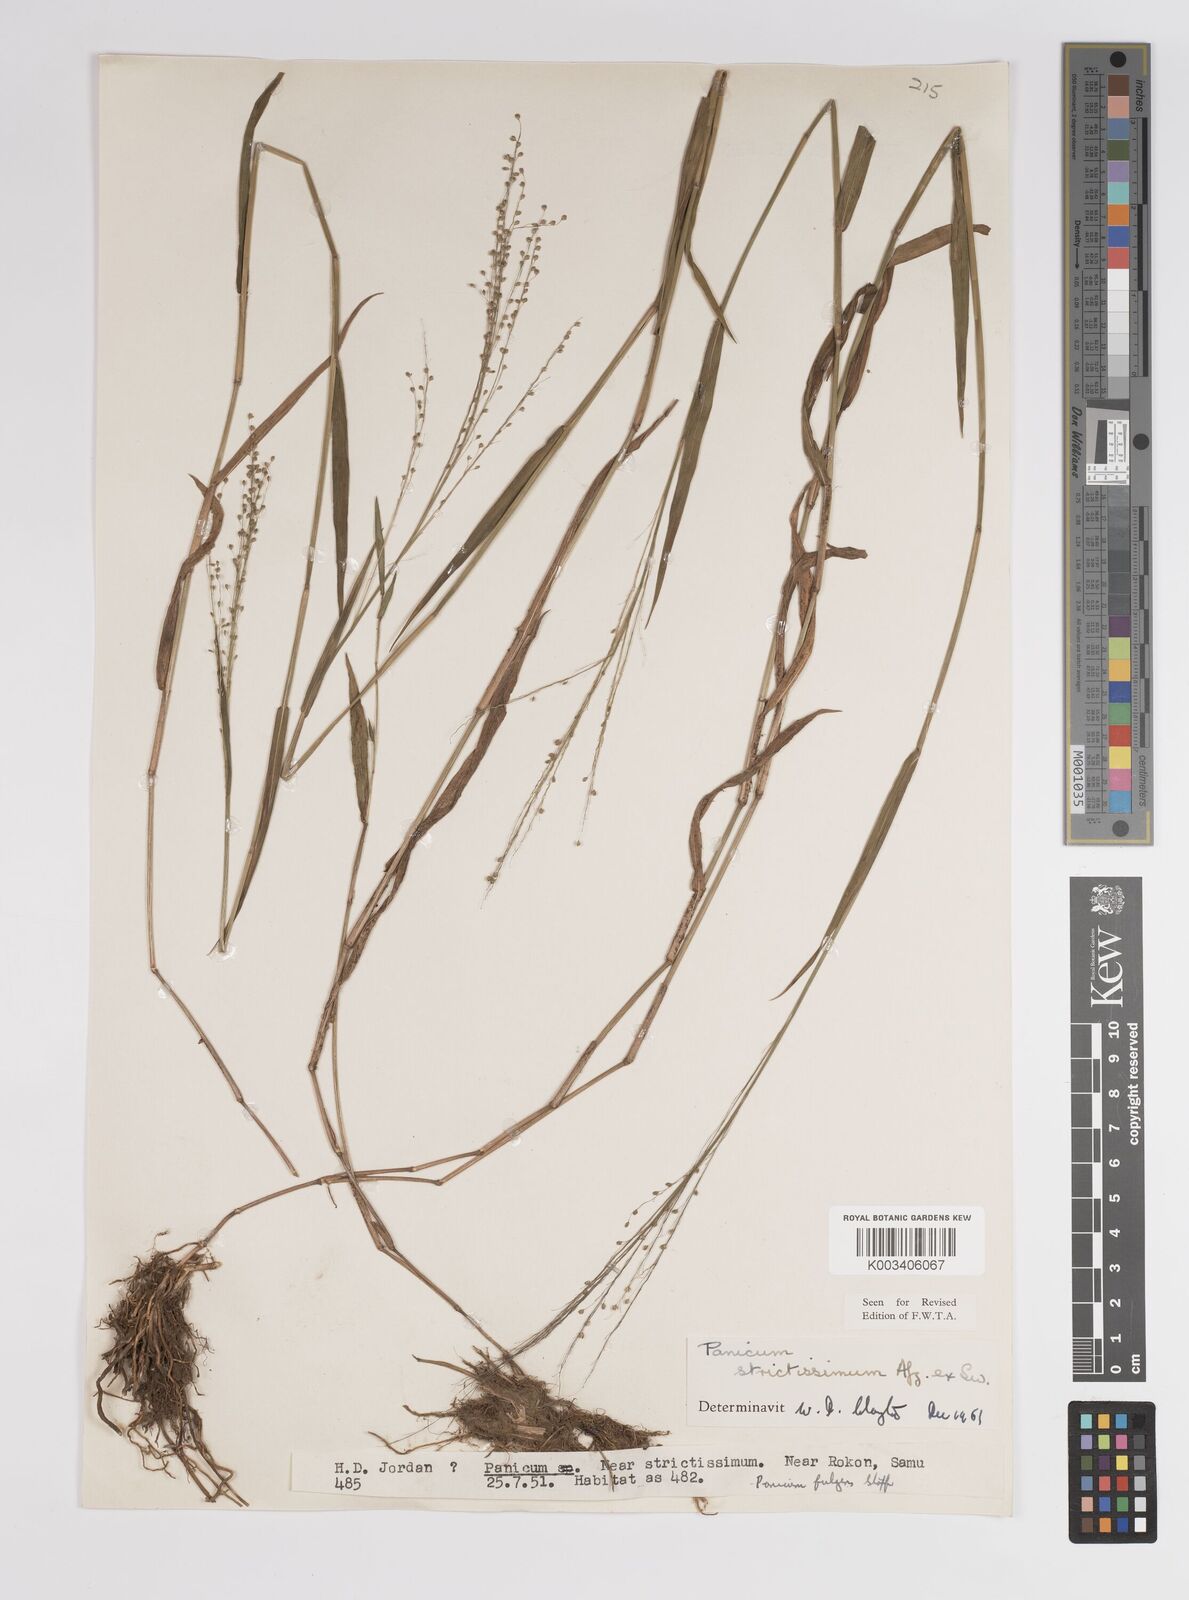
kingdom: Plantae
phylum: Tracheophyta
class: Liliopsida
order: Poales
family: Poaceae
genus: Panicum
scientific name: Panicum eickii
